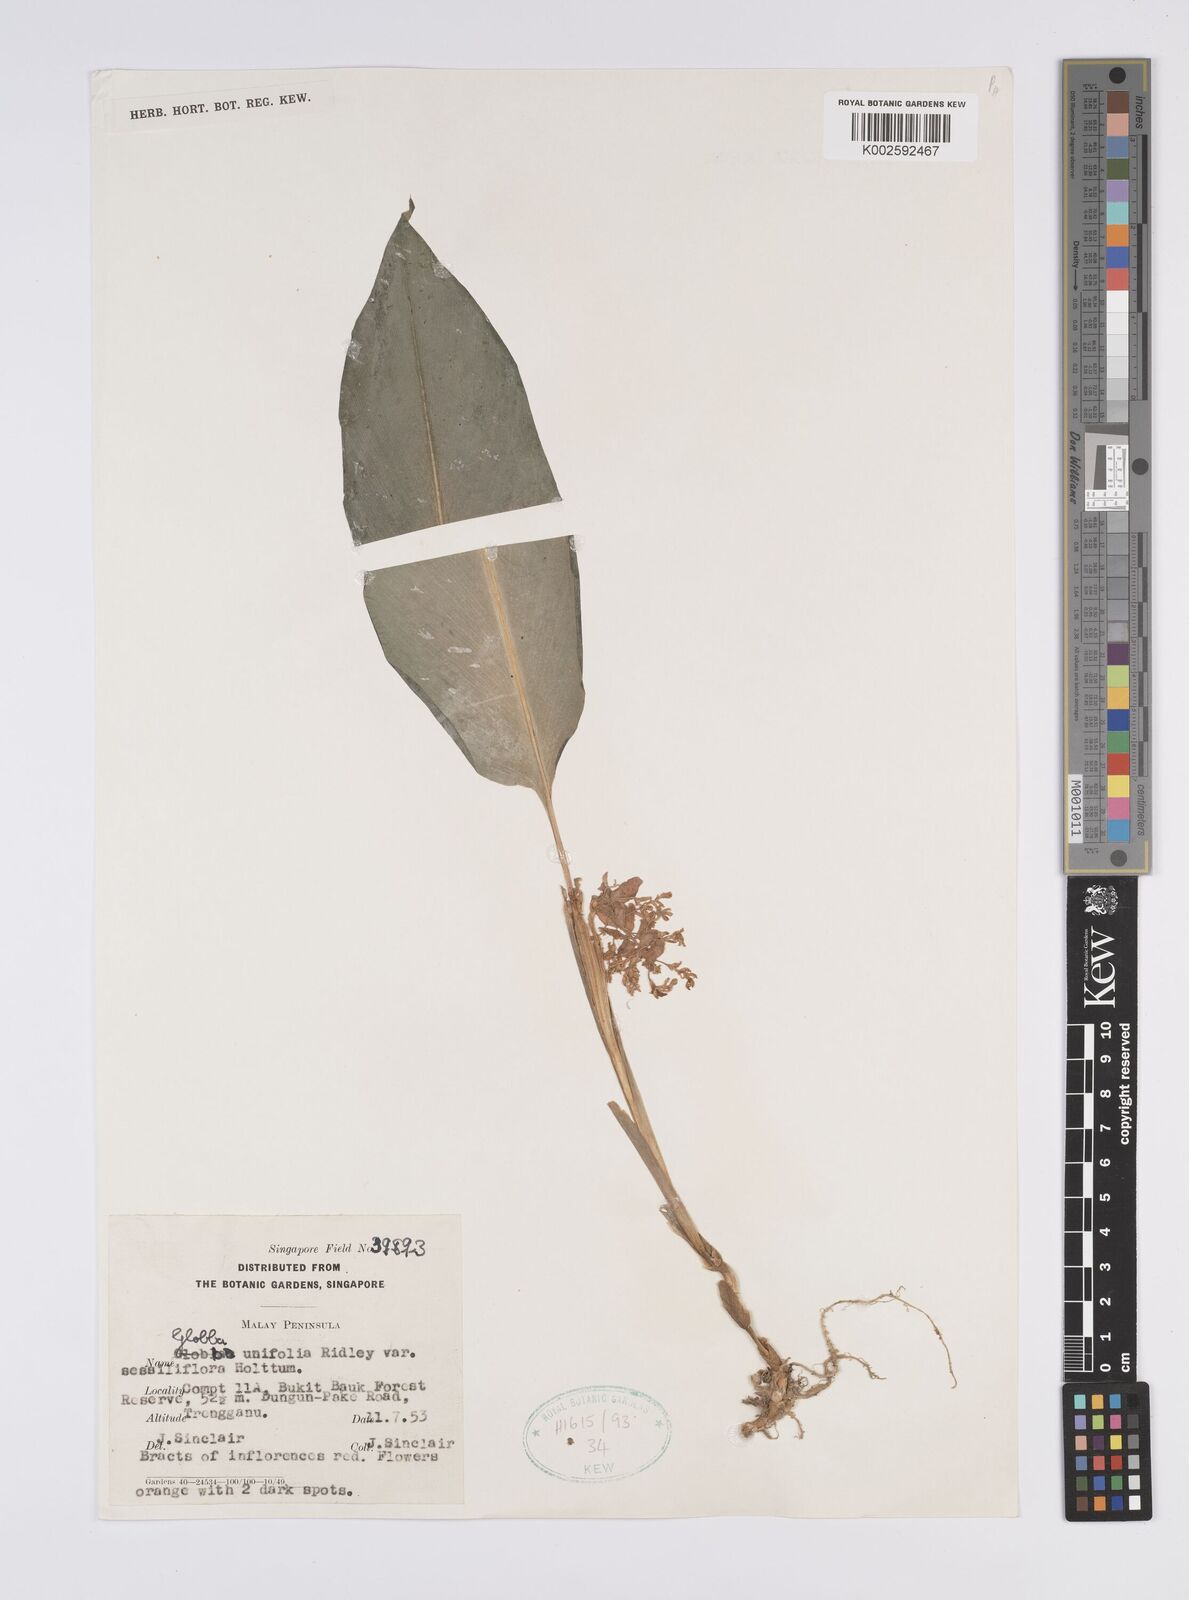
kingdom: Plantae
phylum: Tracheophyta
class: Liliopsida
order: Zingiberales
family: Zingiberaceae
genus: Globba
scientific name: Globba unifolia
